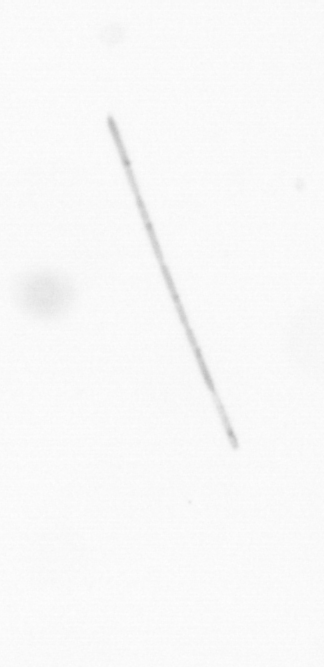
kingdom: Chromista
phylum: Ochrophyta
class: Bacillariophyceae
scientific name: Bacillariophyceae
